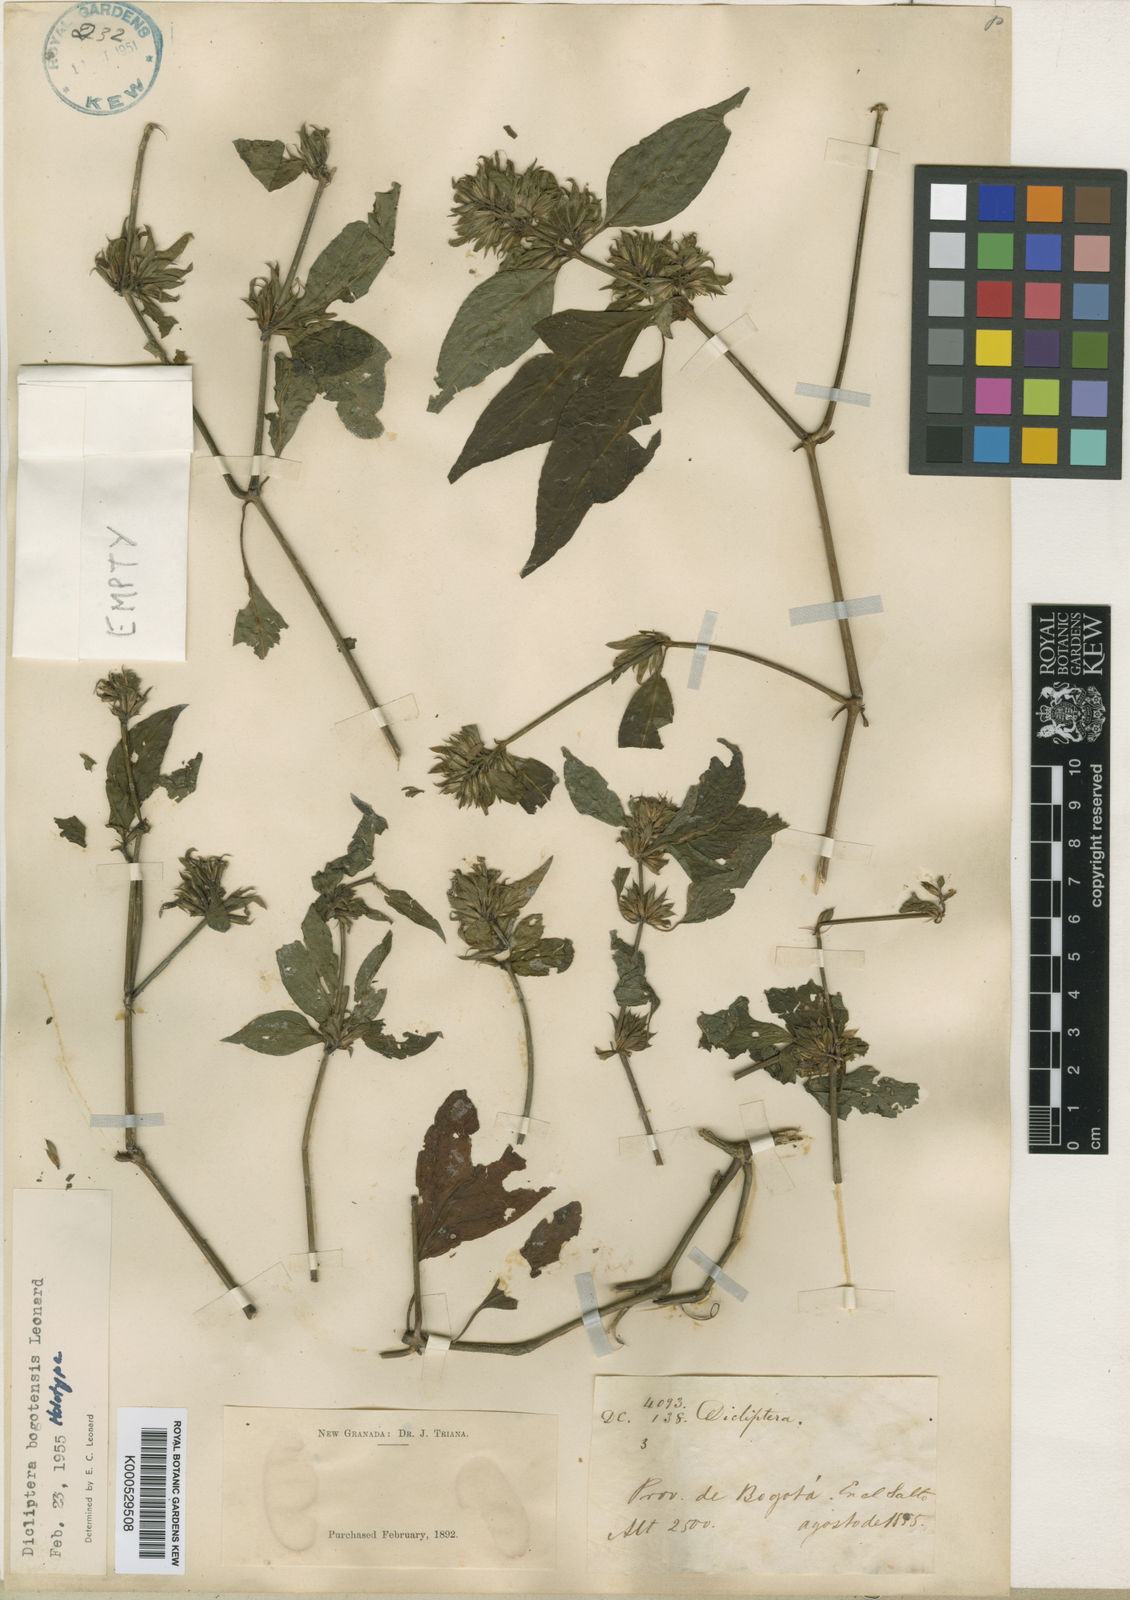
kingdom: Plantae
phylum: Tracheophyta
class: Magnoliopsida
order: Lamiales
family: Acanthaceae
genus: Dicliptera
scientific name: Dicliptera scandens
